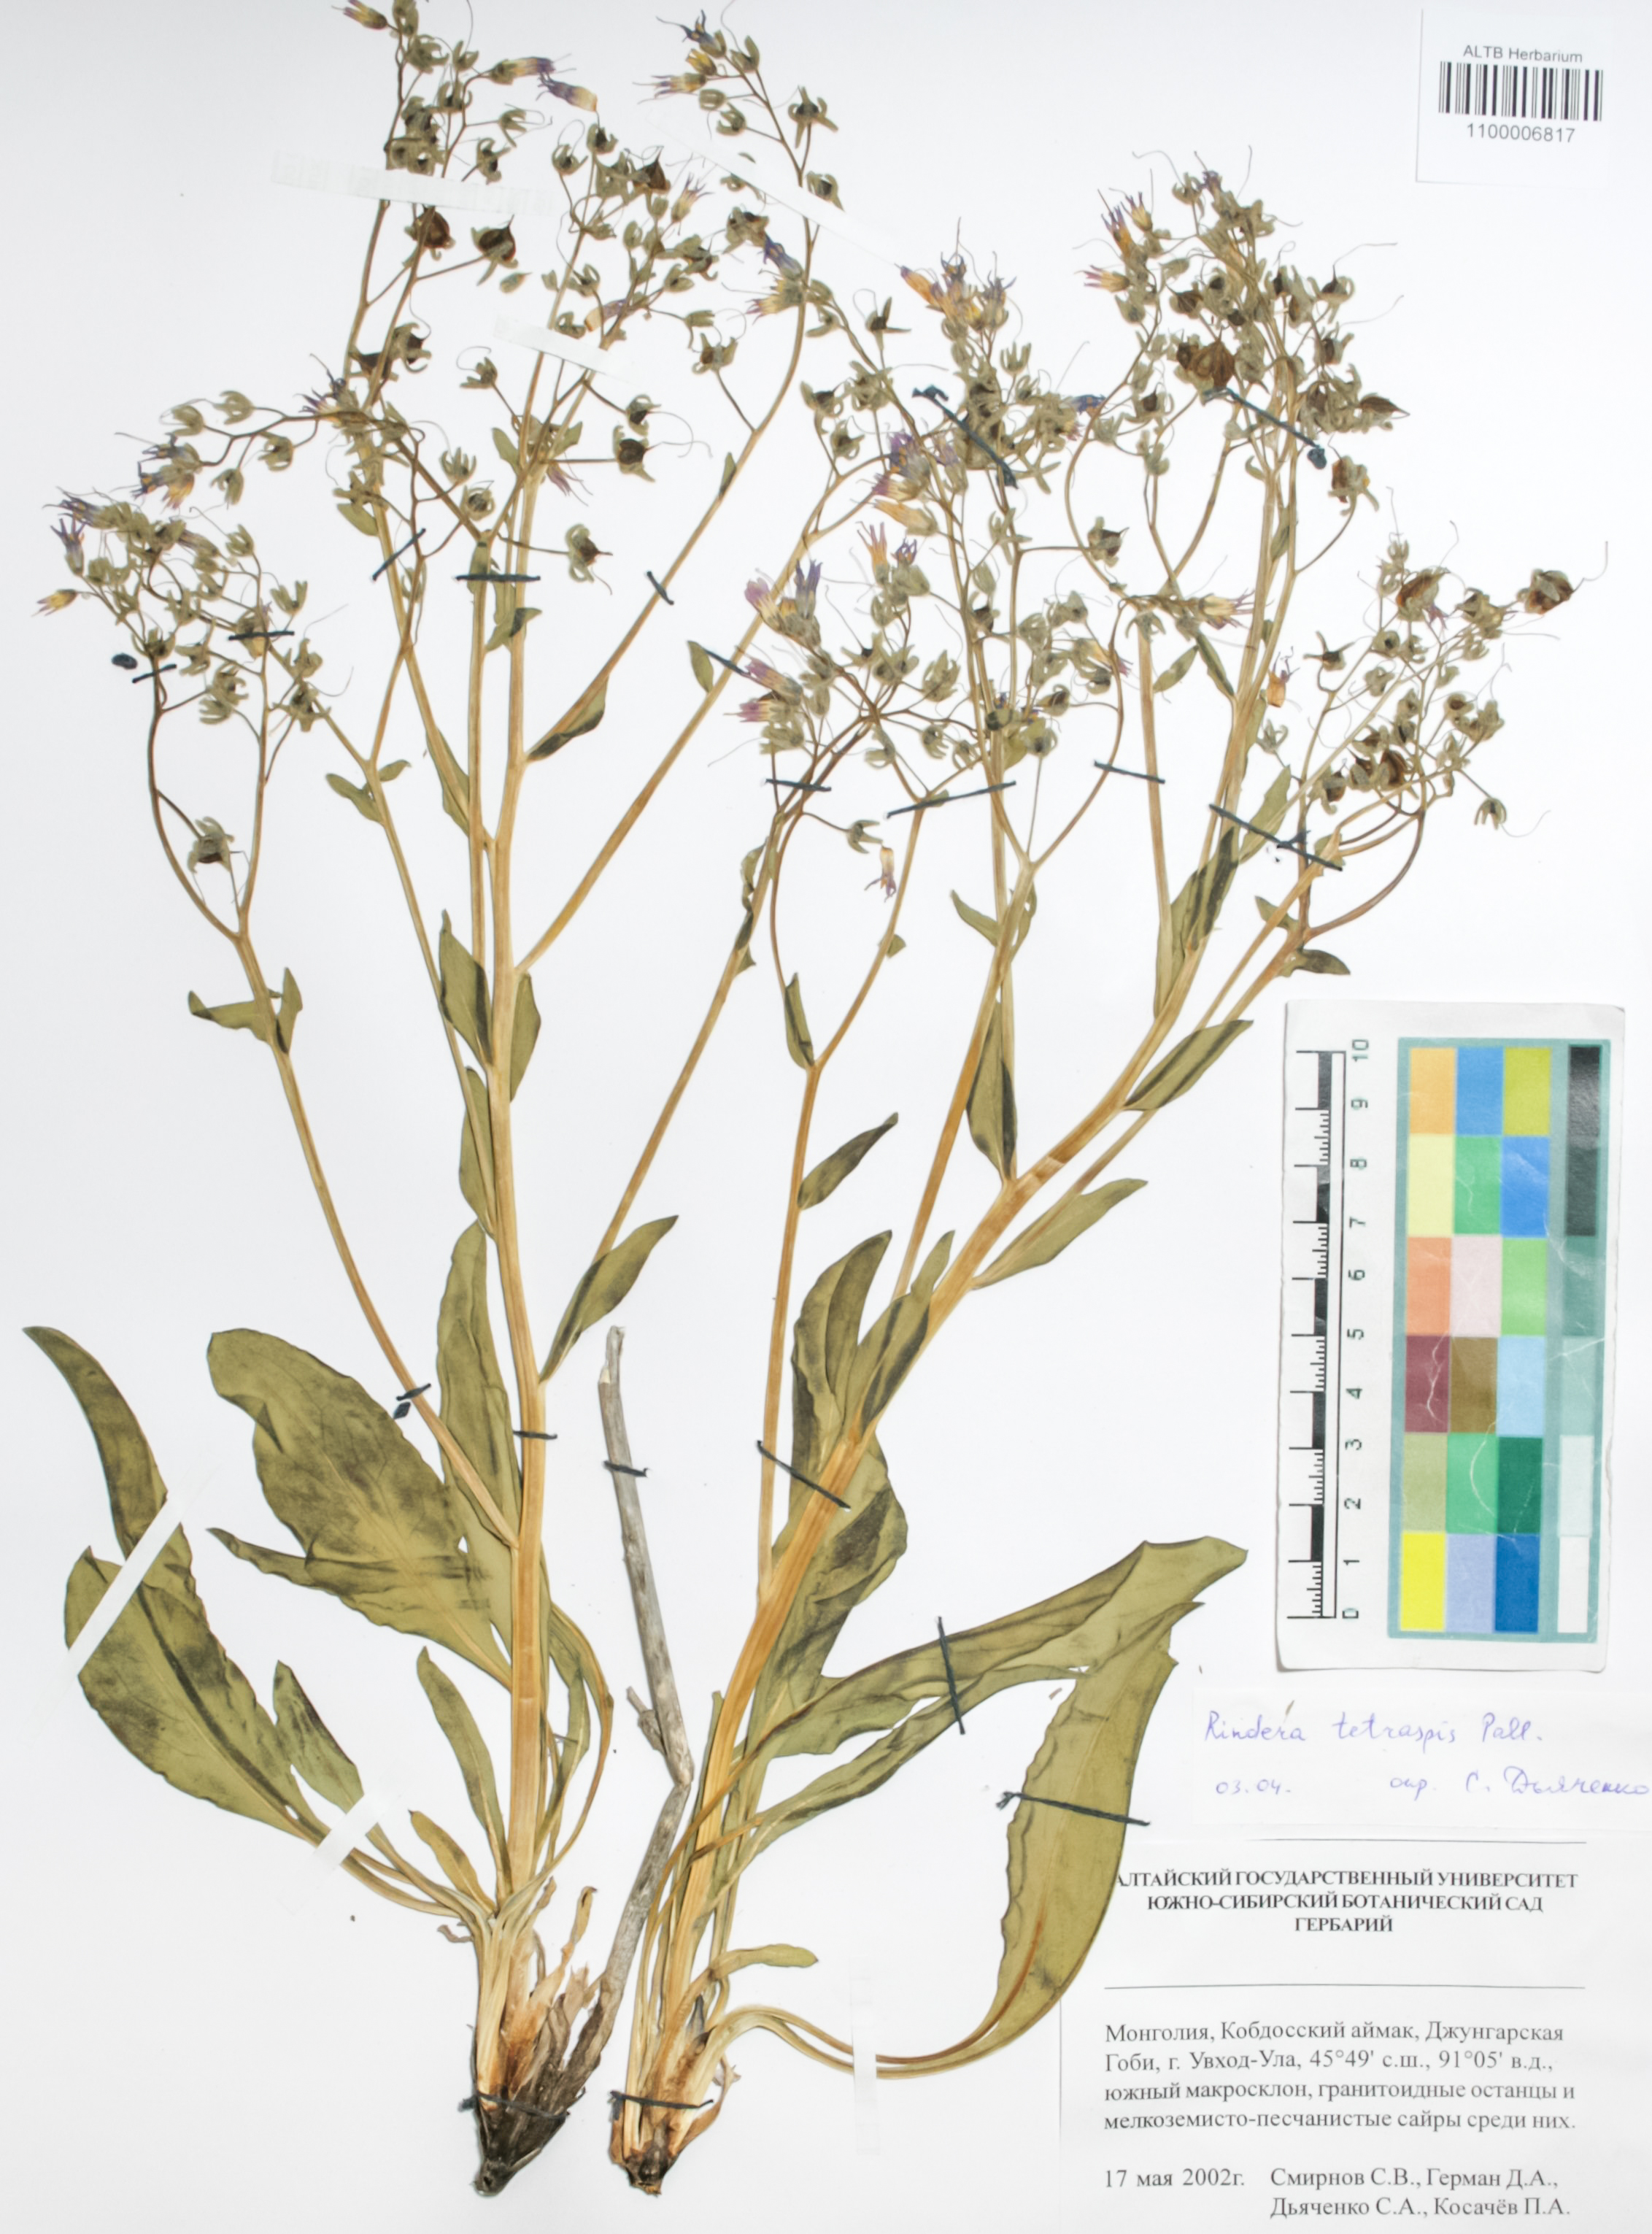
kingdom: Plantae
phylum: Tracheophyta
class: Magnoliopsida
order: Boraginales
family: Boraginaceae
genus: Rindera
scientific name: Rindera tetraspis
